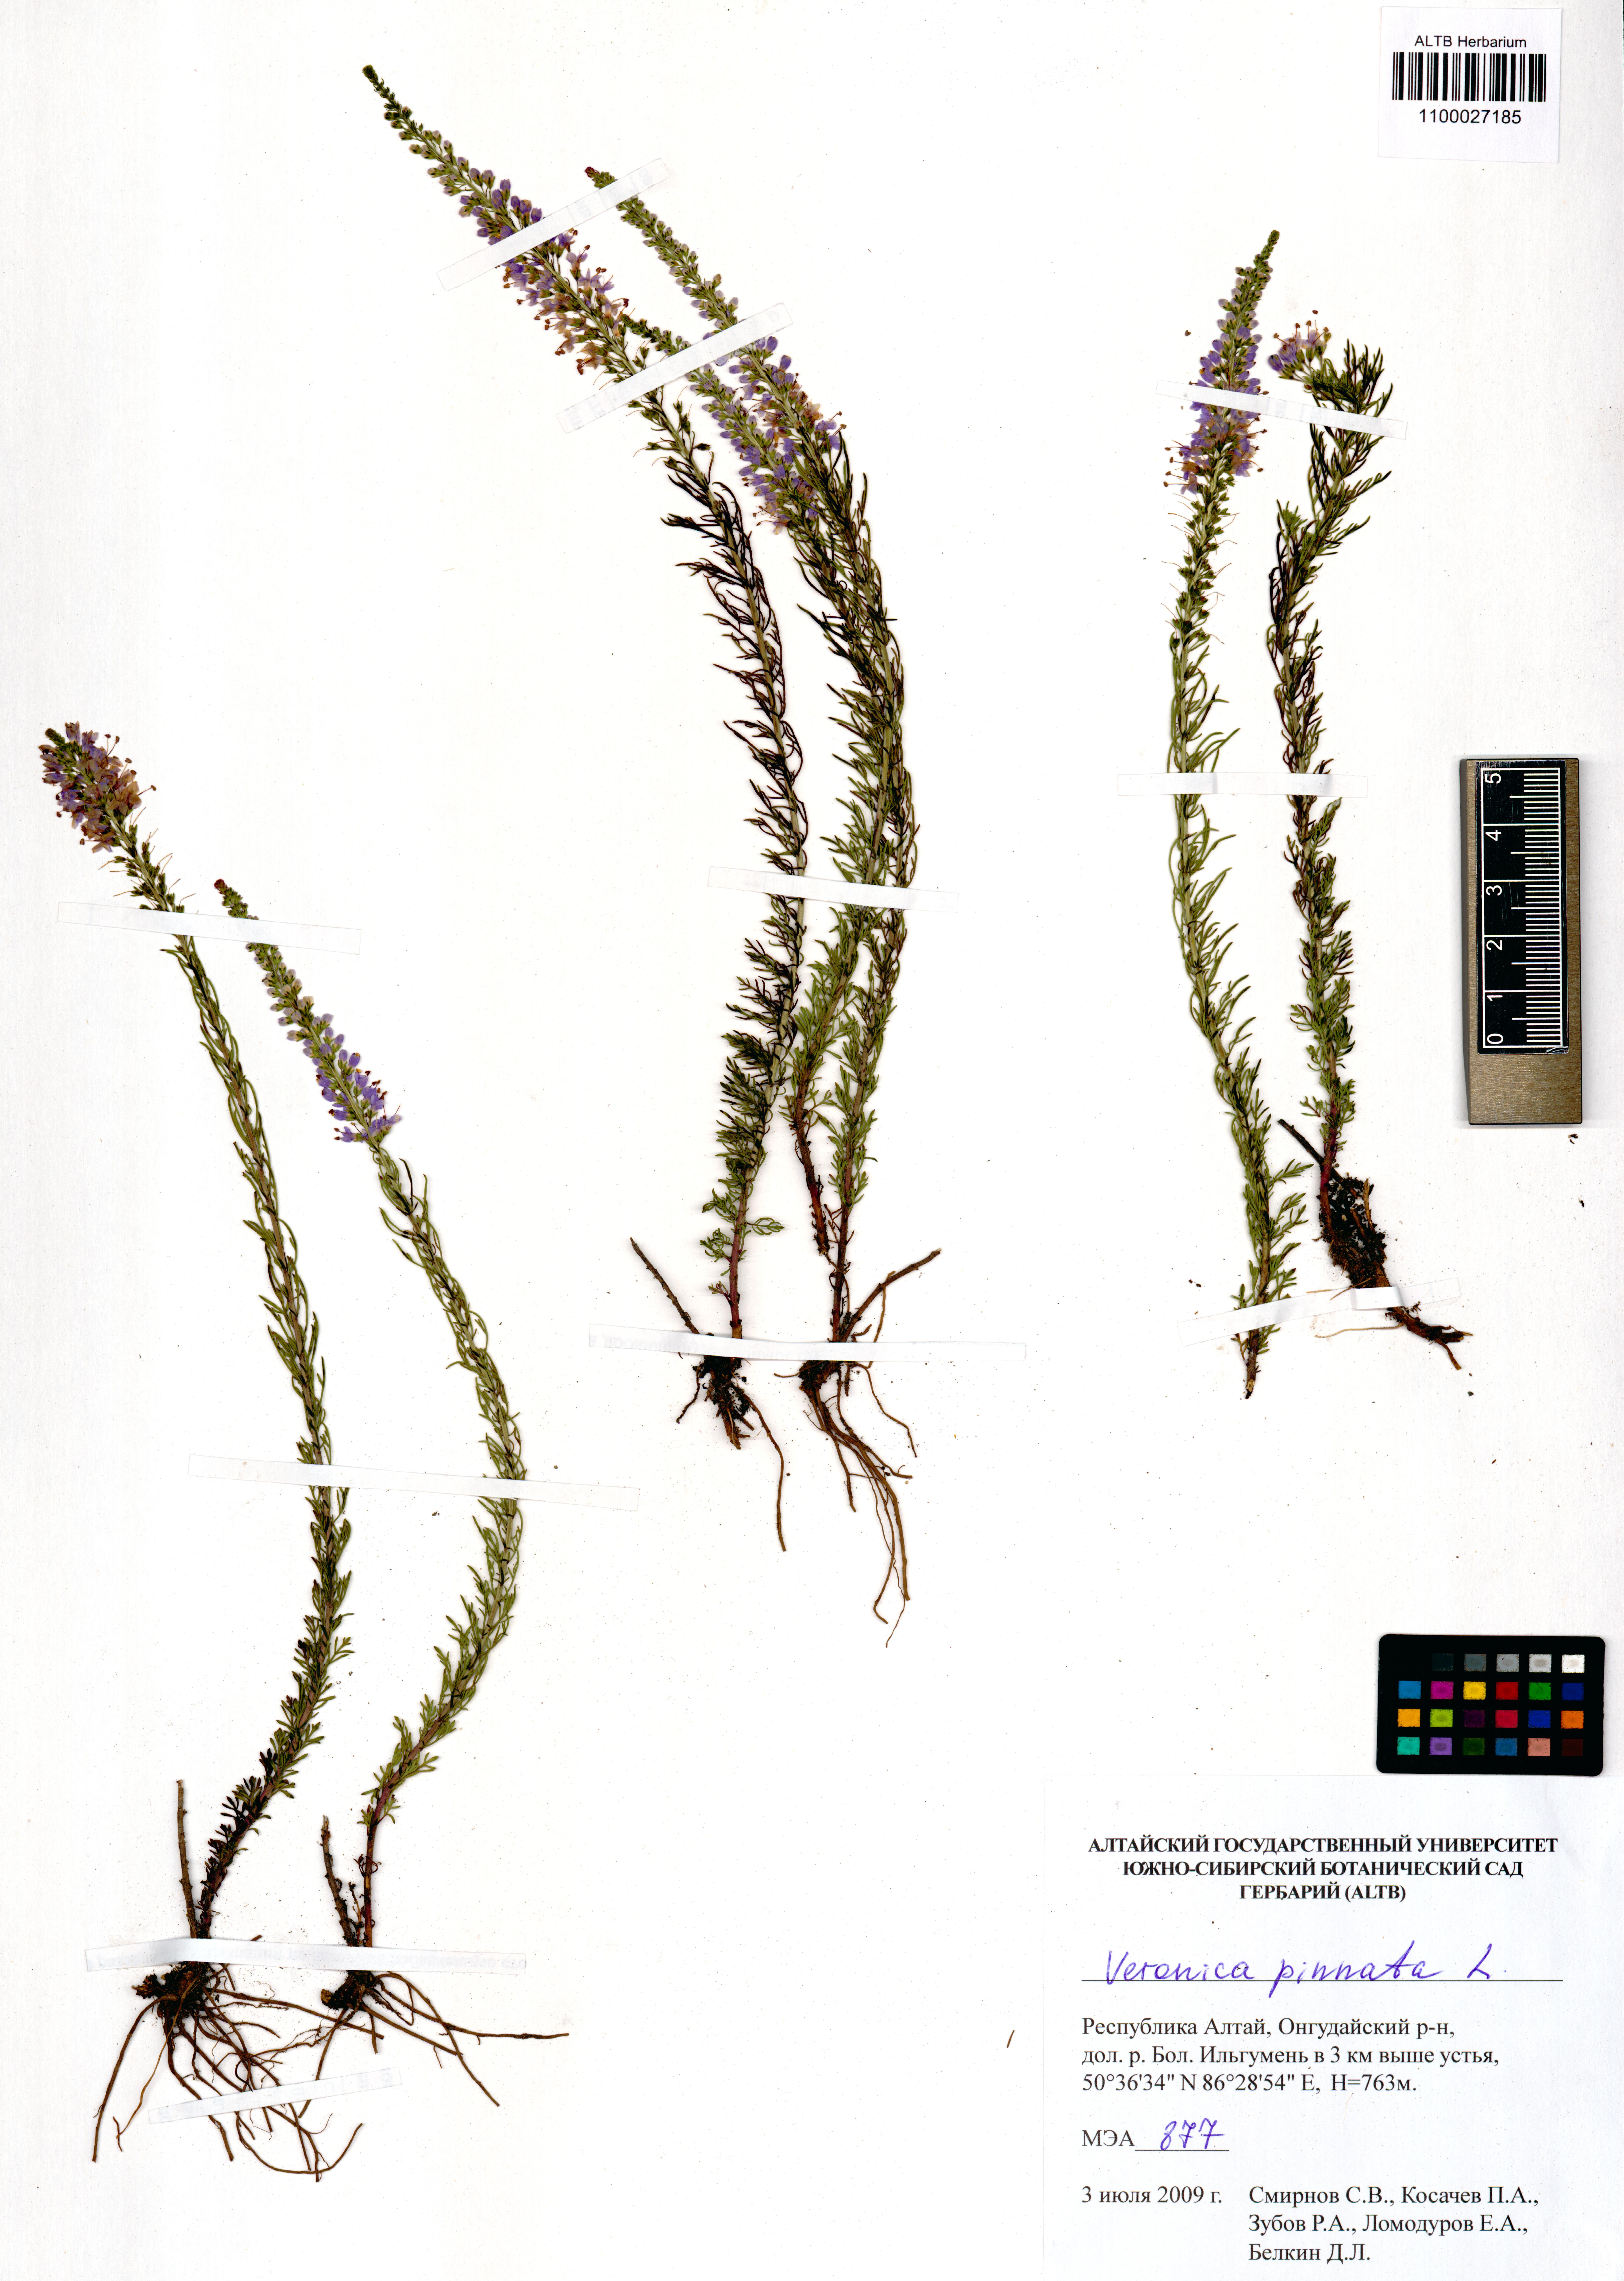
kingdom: Plantae
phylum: Tracheophyta
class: Magnoliopsida
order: Lamiales
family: Plantaginaceae
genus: Veronica
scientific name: Veronica pinnata
